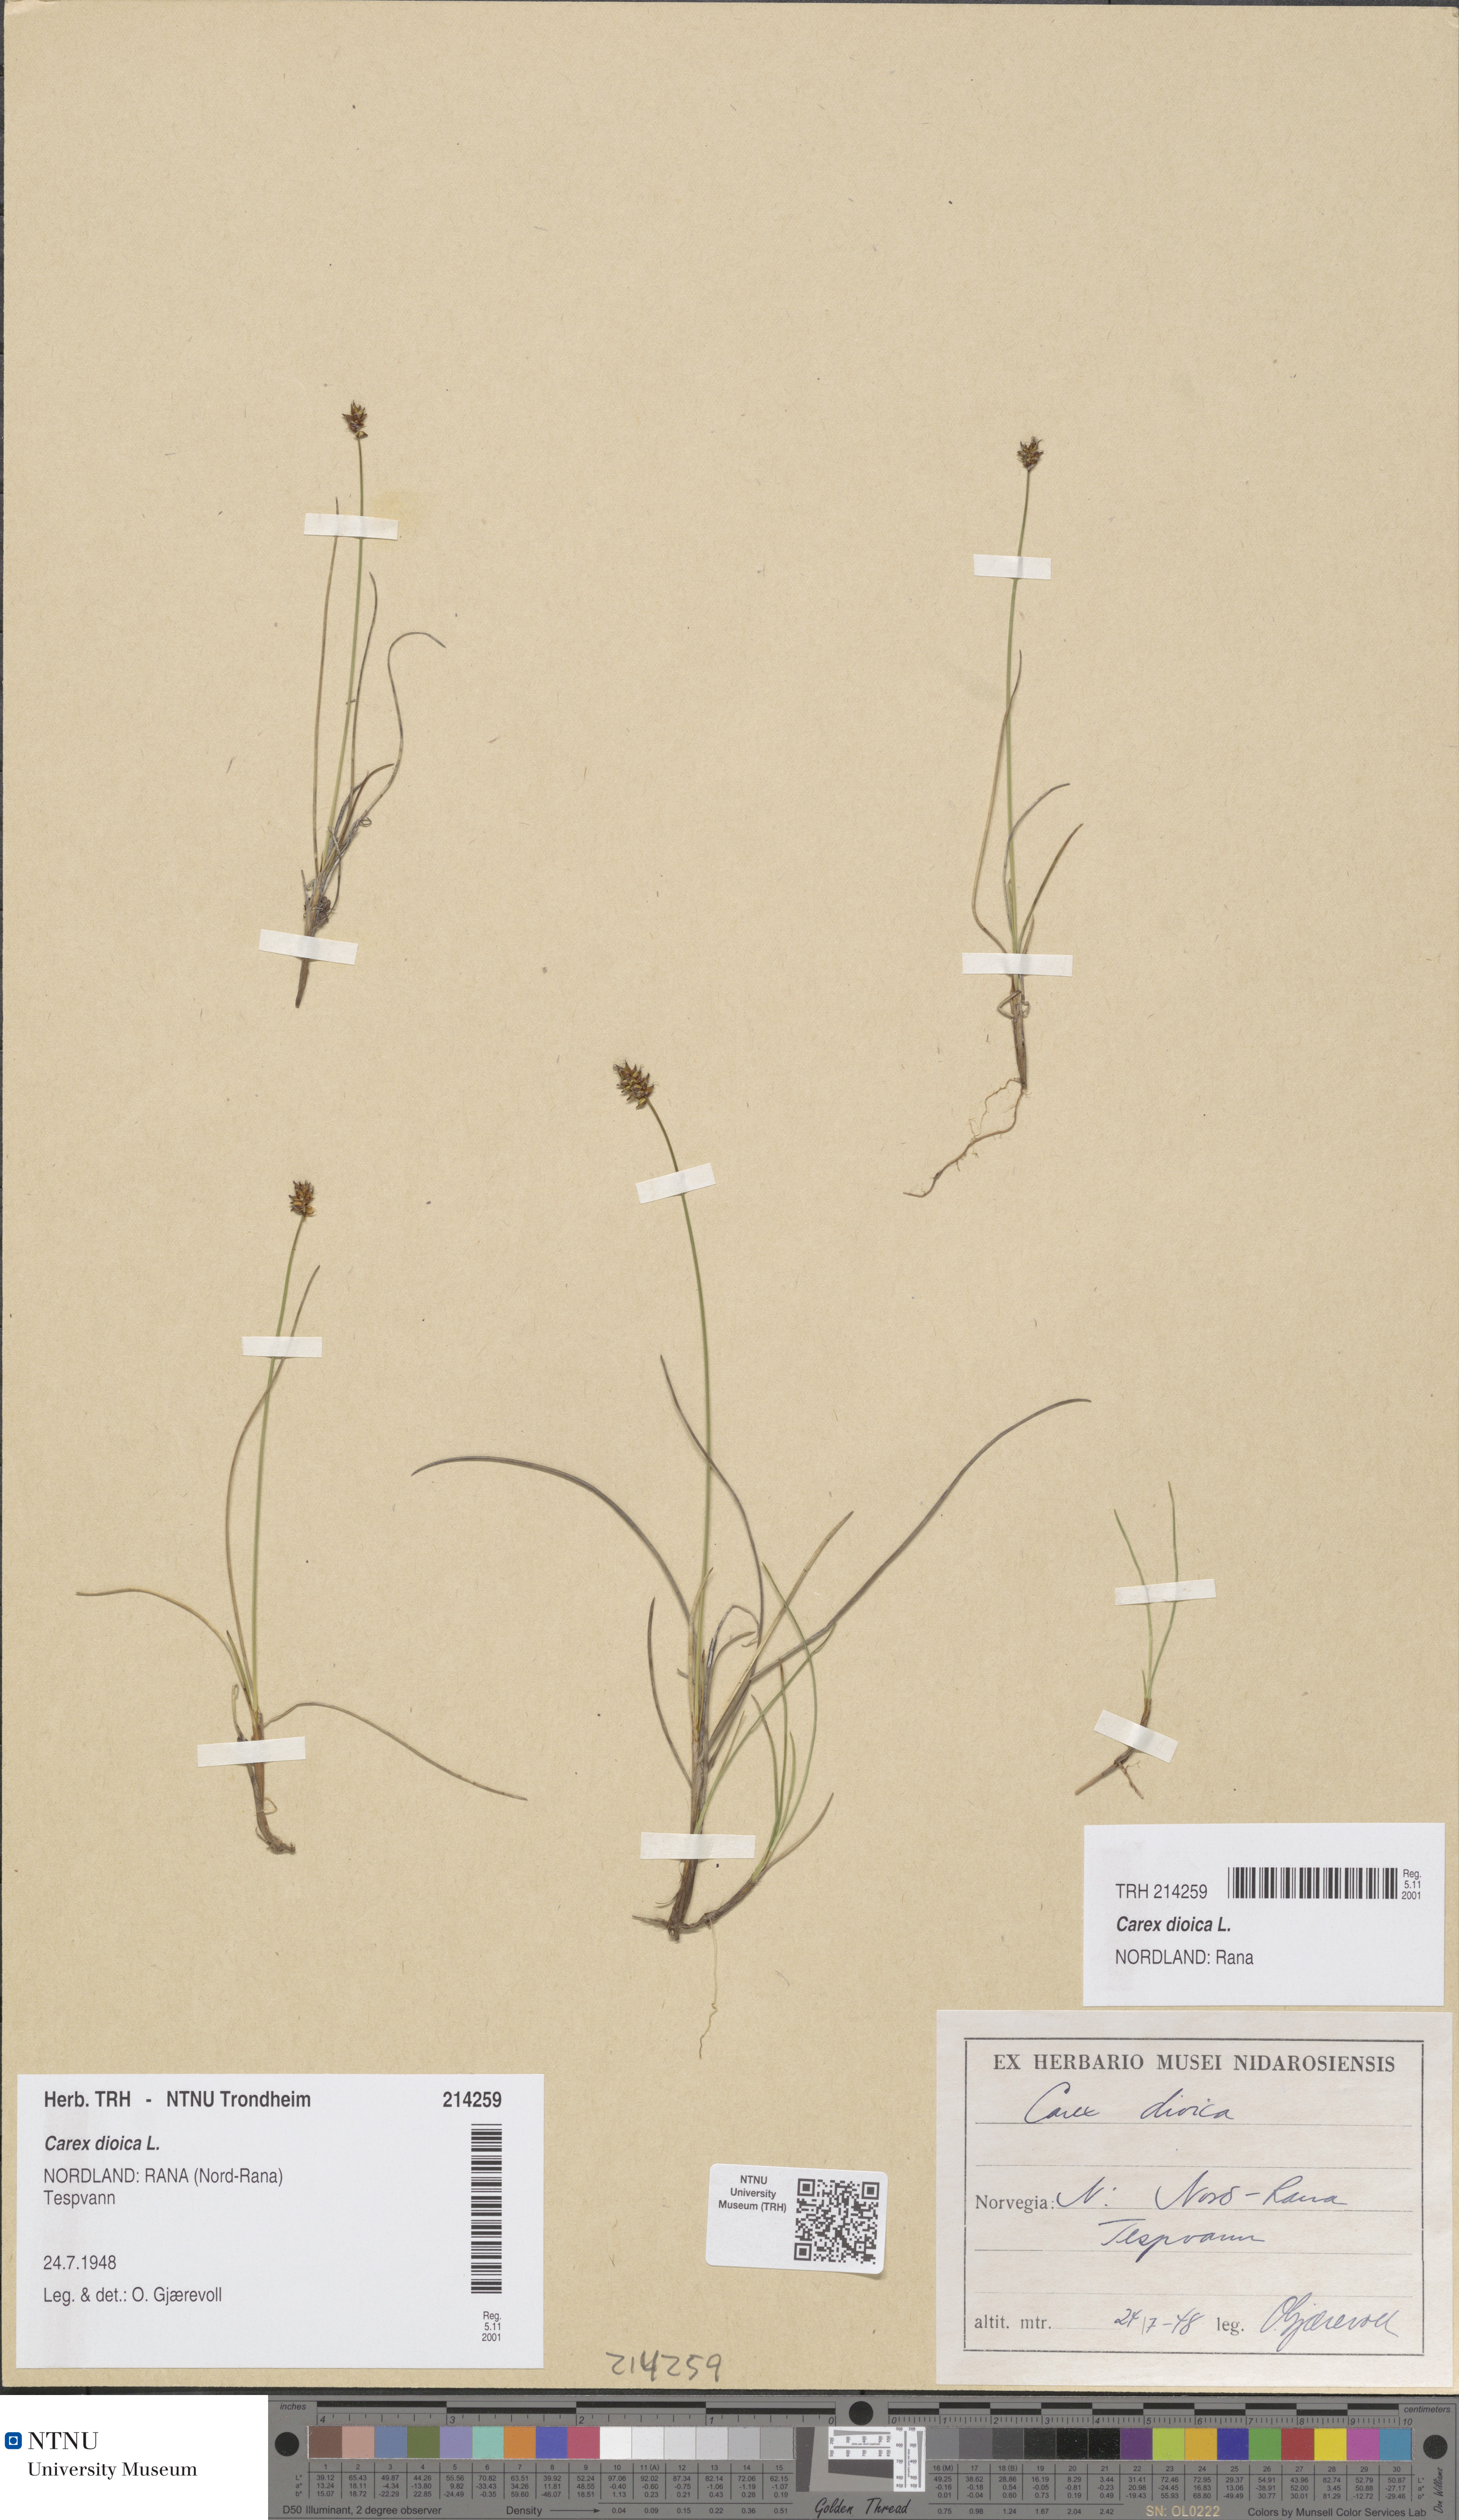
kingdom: Plantae
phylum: Tracheophyta
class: Liliopsida
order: Poales
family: Cyperaceae
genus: Carex
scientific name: Carex dioica
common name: Dioecious sedge
